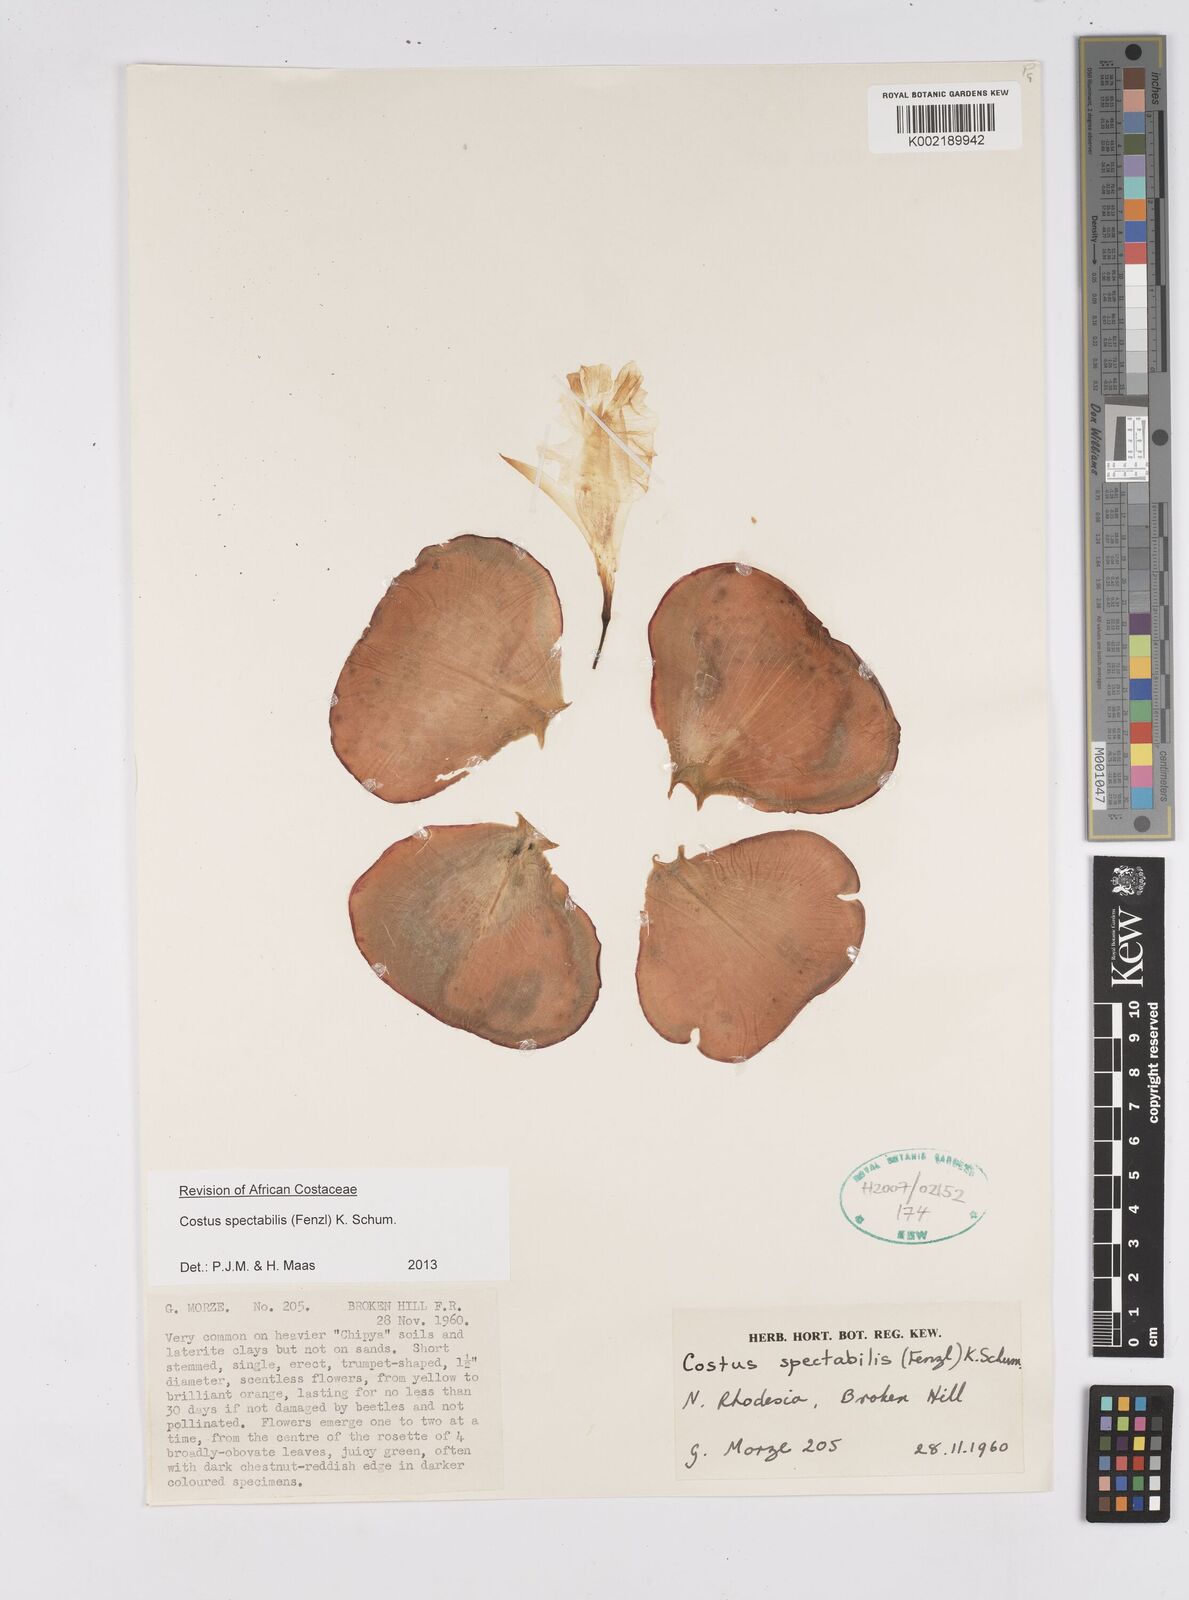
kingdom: Plantae
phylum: Tracheophyta
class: Liliopsida
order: Zingiberales
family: Costaceae
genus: Costus
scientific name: Costus spectabilis
